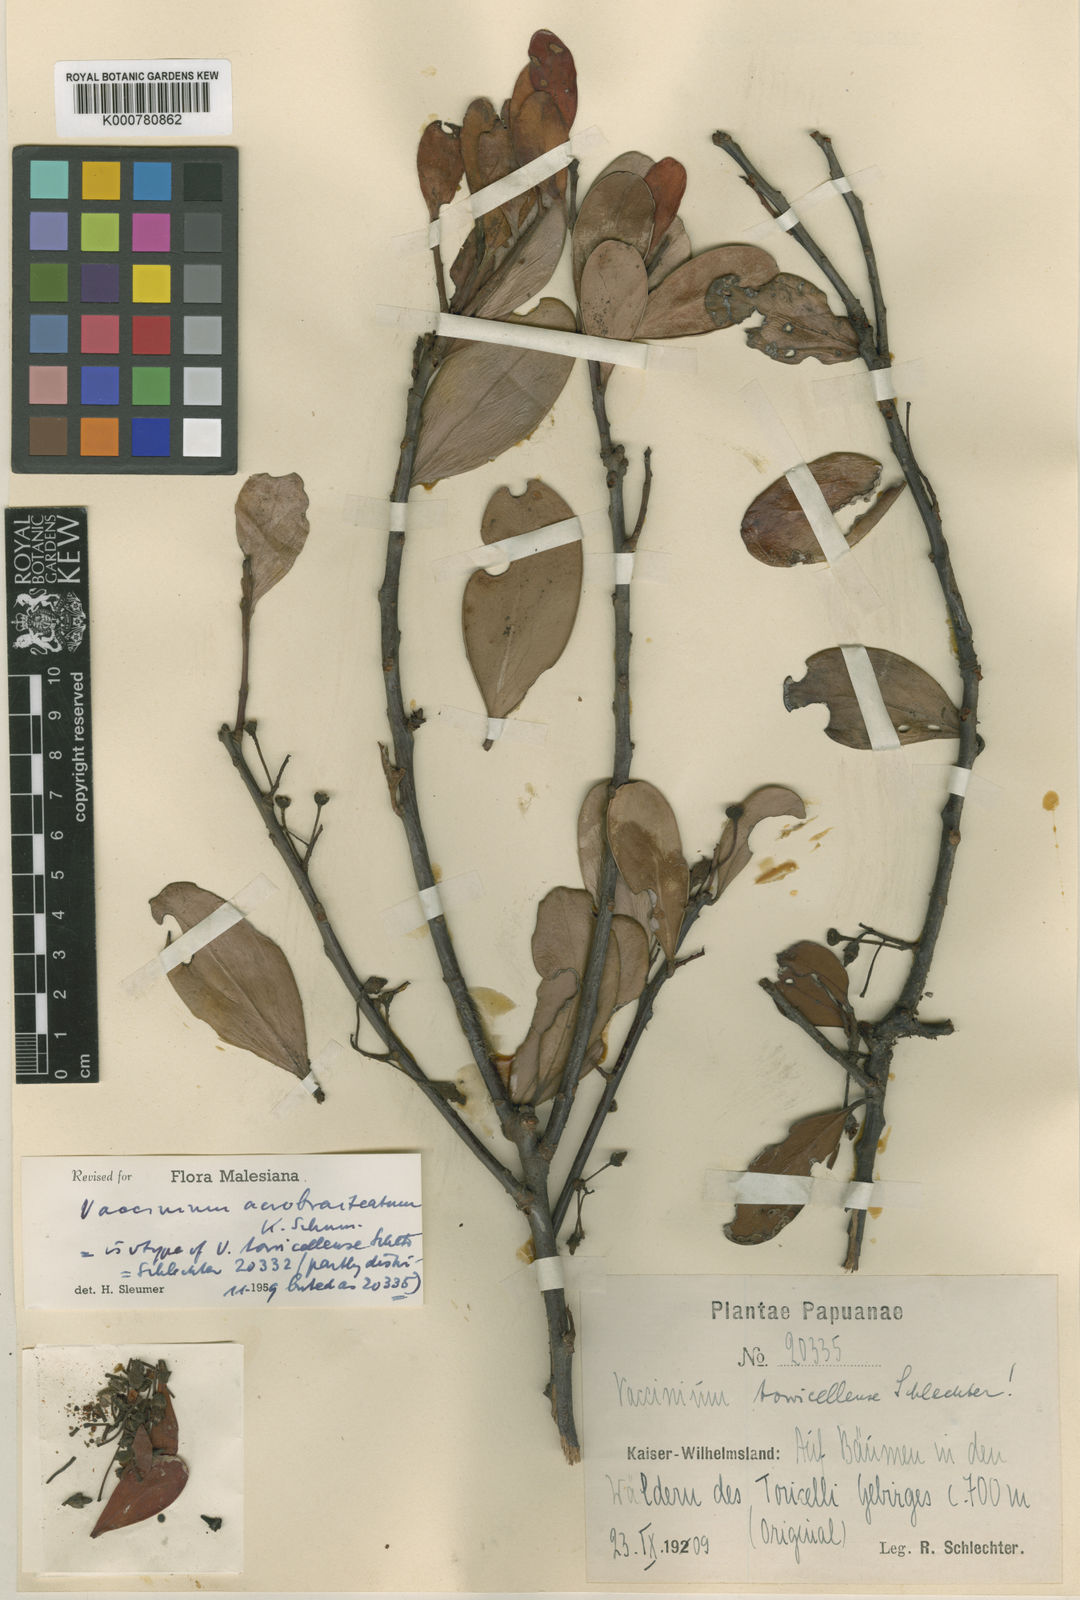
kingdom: Plantae
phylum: Tracheophyta
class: Magnoliopsida
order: Ericales
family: Ericaceae
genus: Vaccinium
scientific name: Vaccinium acrobracteatum
